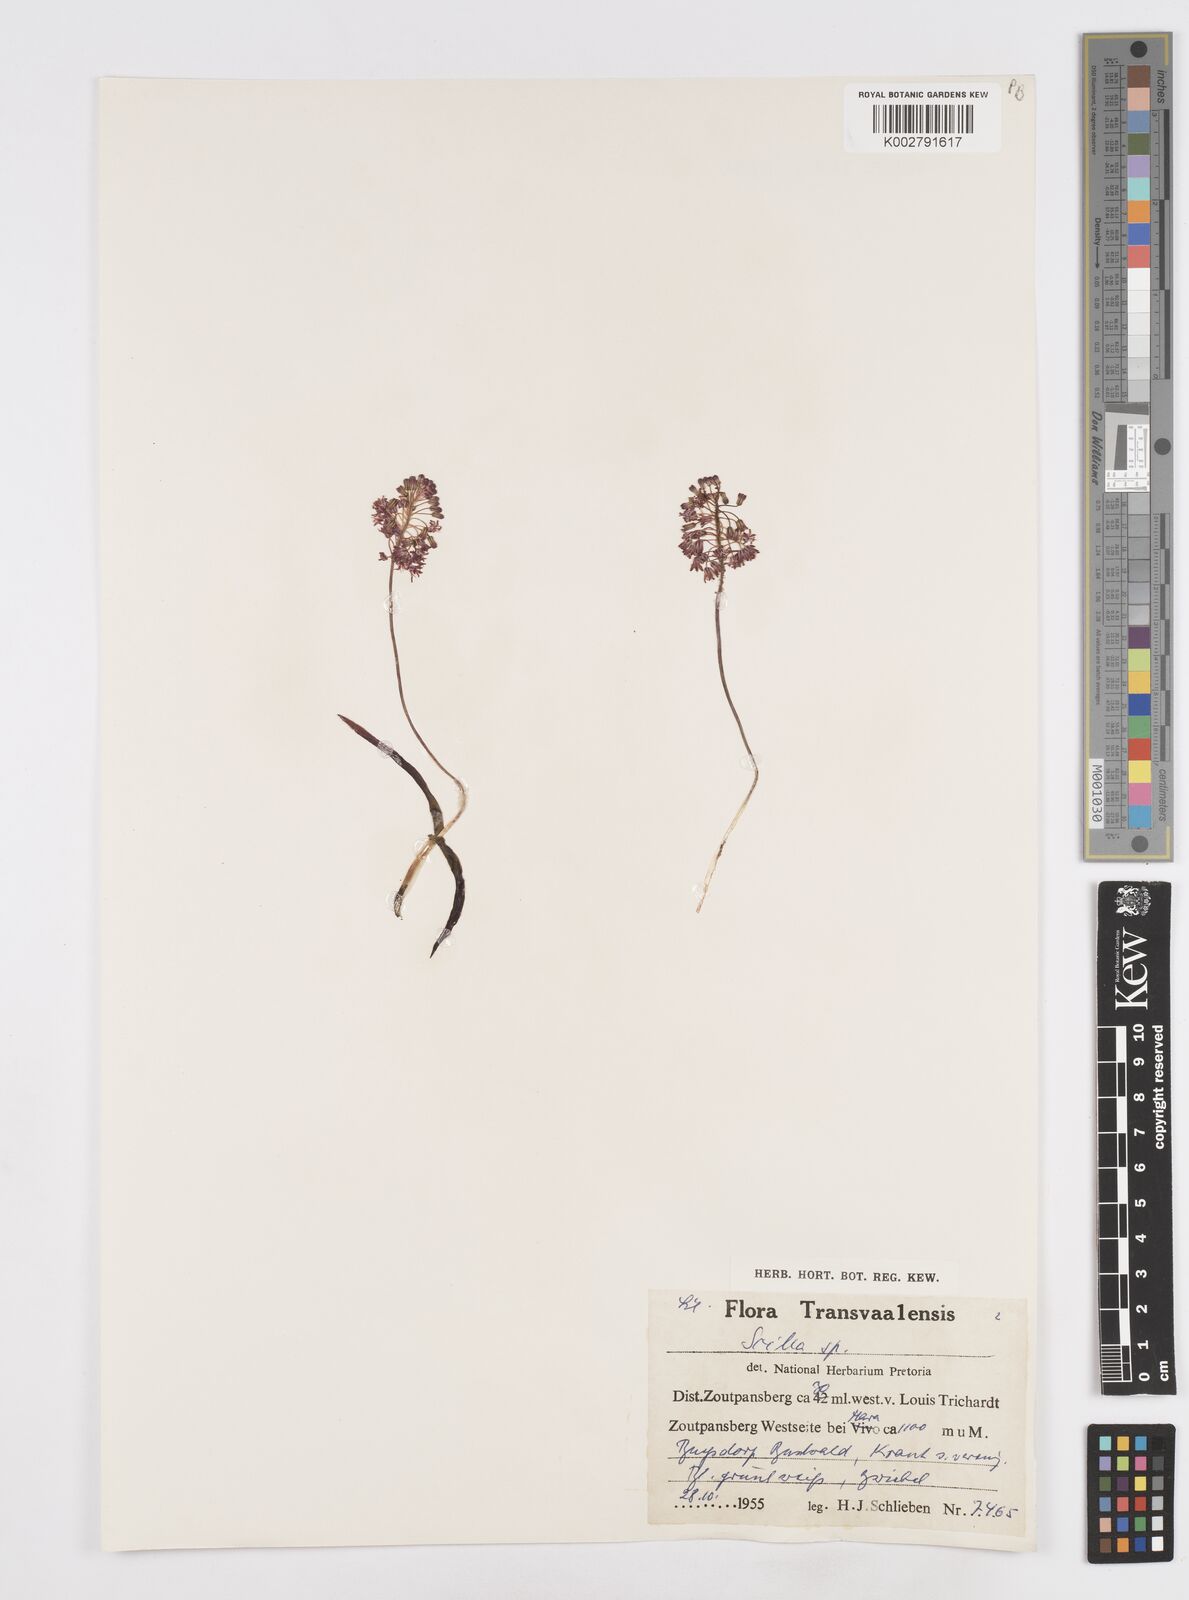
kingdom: Plantae
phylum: Tracheophyta
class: Liliopsida
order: Asparagales
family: Asparagaceae
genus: Scilla
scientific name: Scilla
